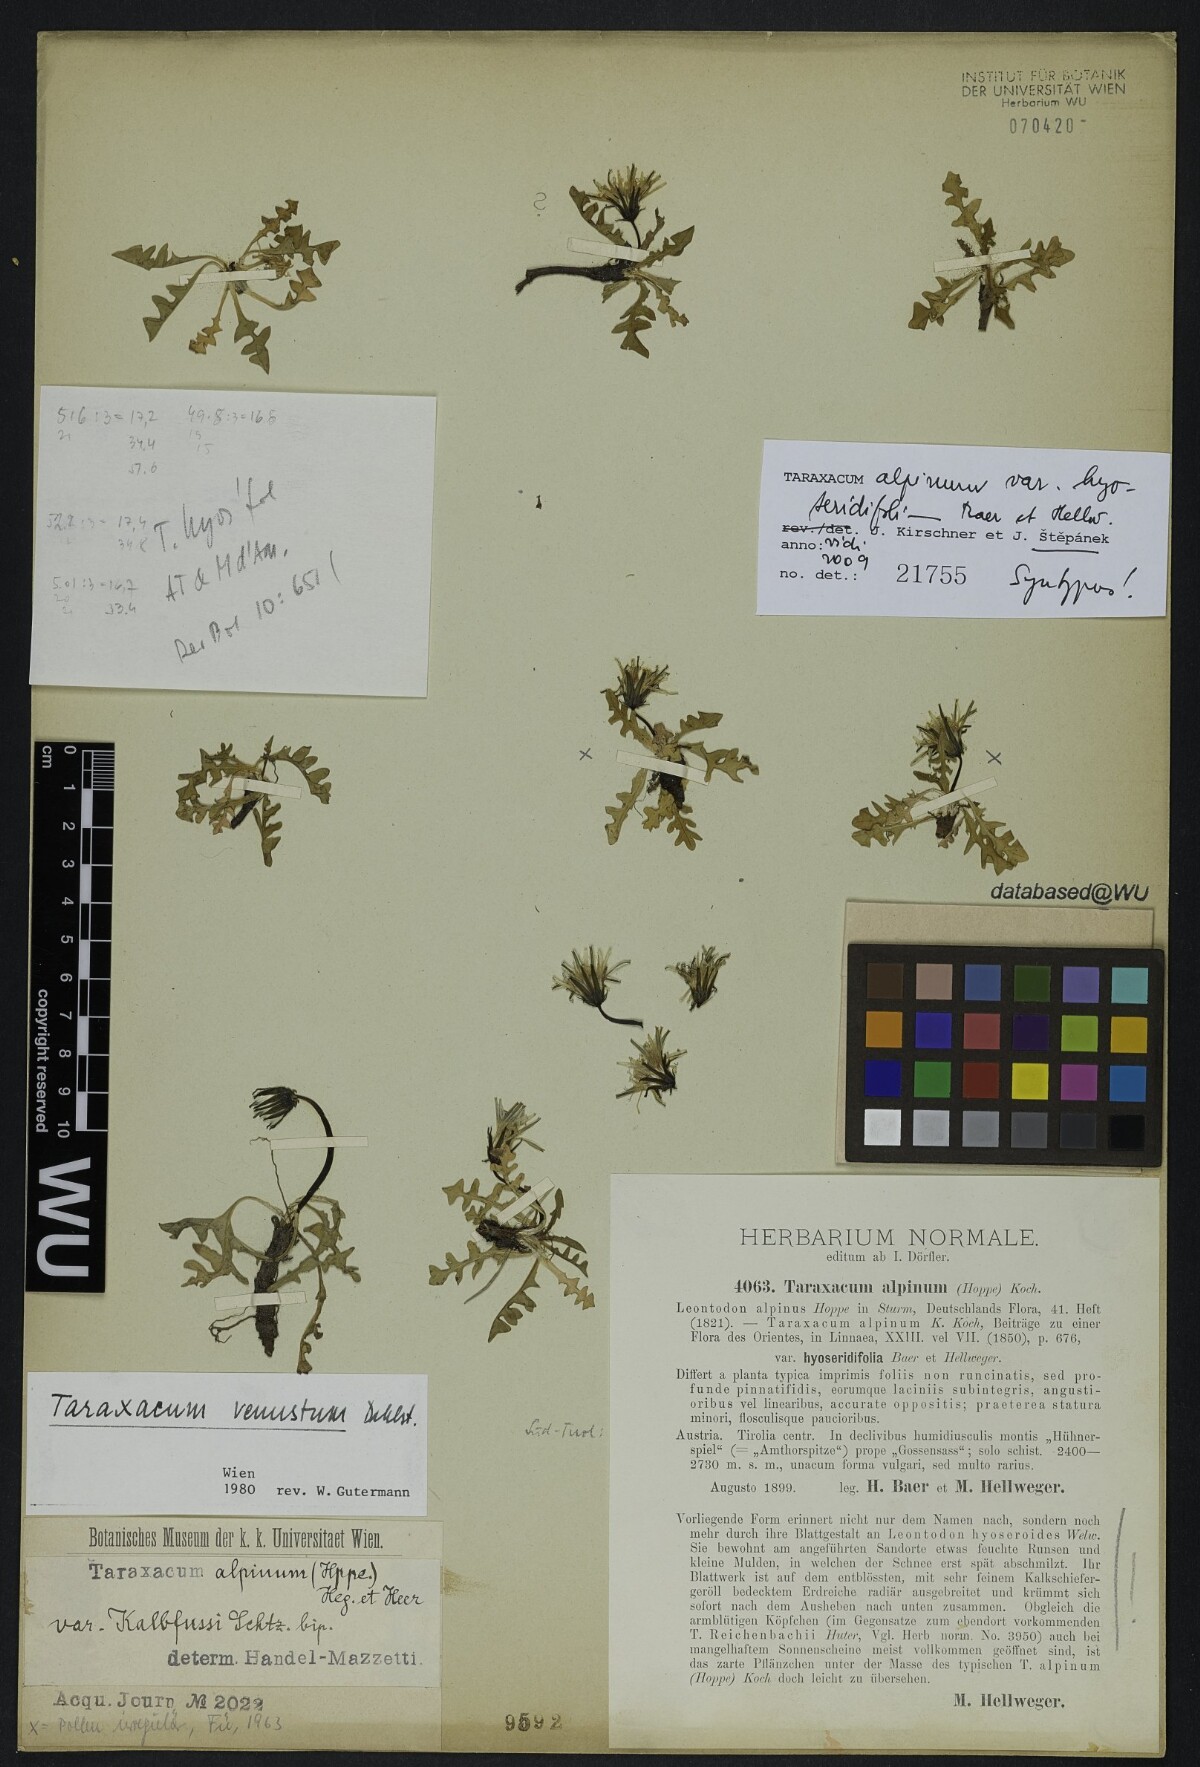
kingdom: Plantae
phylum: Tracheophyta
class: Magnoliopsida
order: Asterales
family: Asteraceae
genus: Taraxacum
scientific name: Taraxacum alpinum
